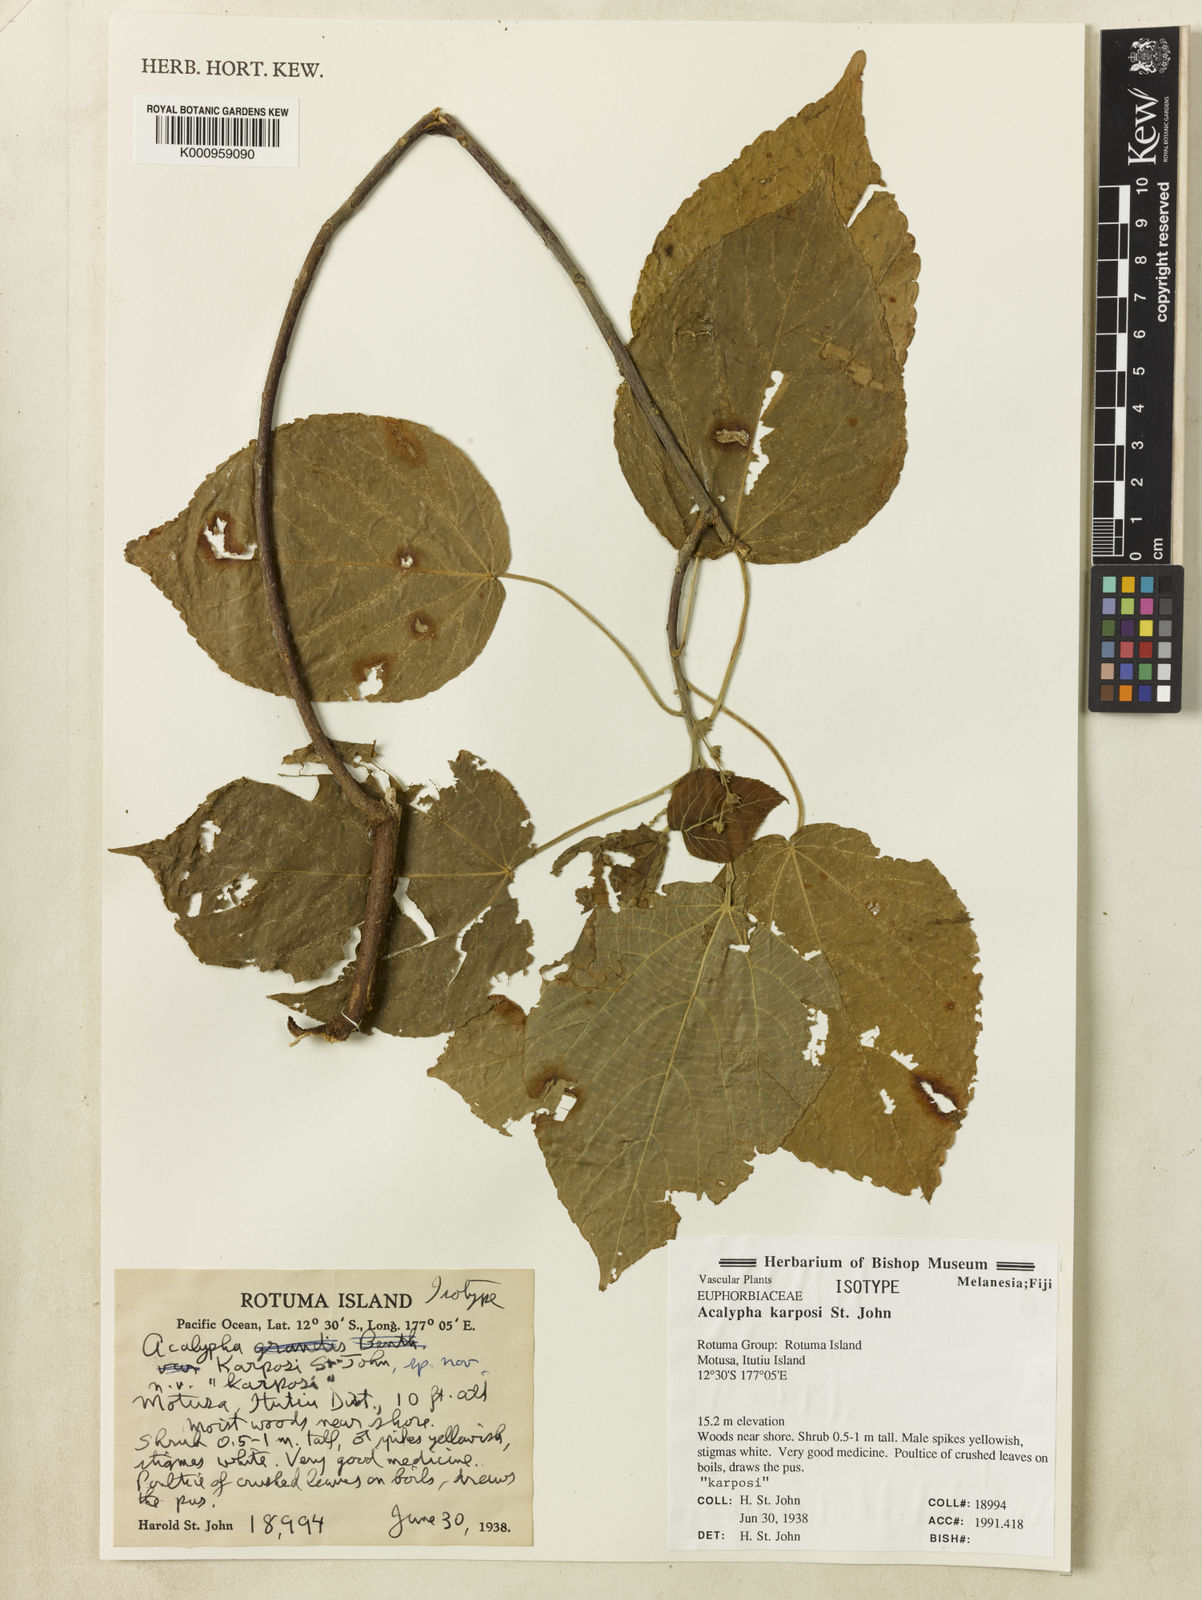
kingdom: Plantae
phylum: Tracheophyta
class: Magnoliopsida
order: Malpighiales
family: Euphorbiaceae
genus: Acalypha
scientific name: Acalypha
